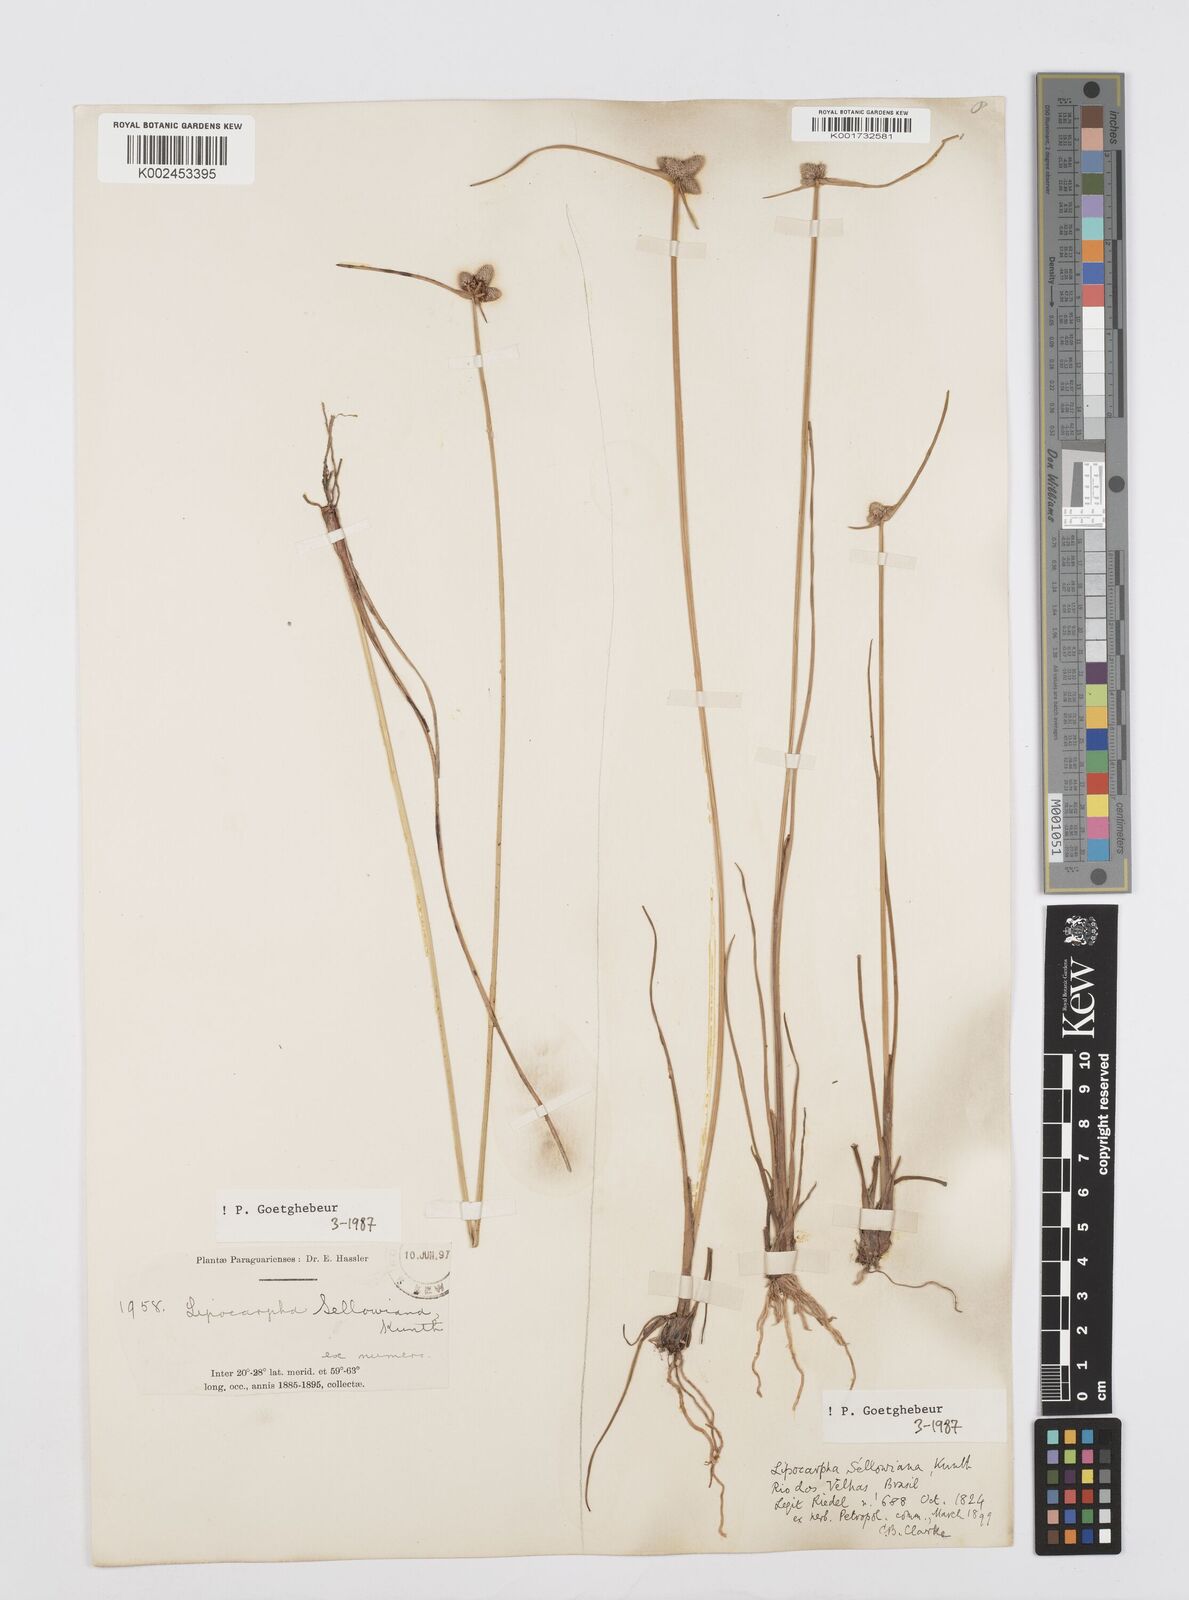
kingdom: Plantae
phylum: Tracheophyta
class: Liliopsida
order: Poales
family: Cyperaceae
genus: Cyperus
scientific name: Cyperus lanceolatus
